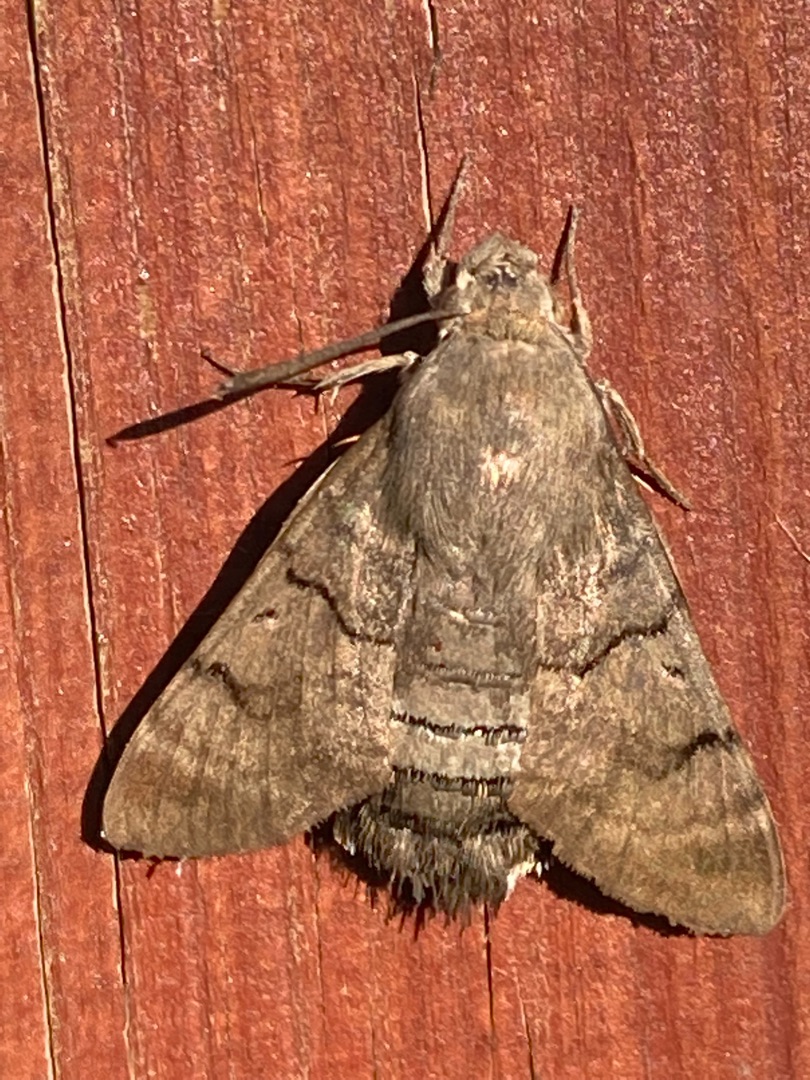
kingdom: Animalia
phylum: Arthropoda
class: Insecta
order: Lepidoptera
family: Sphingidae
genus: Macroglossum
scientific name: Macroglossum stellatarum
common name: Duehale
